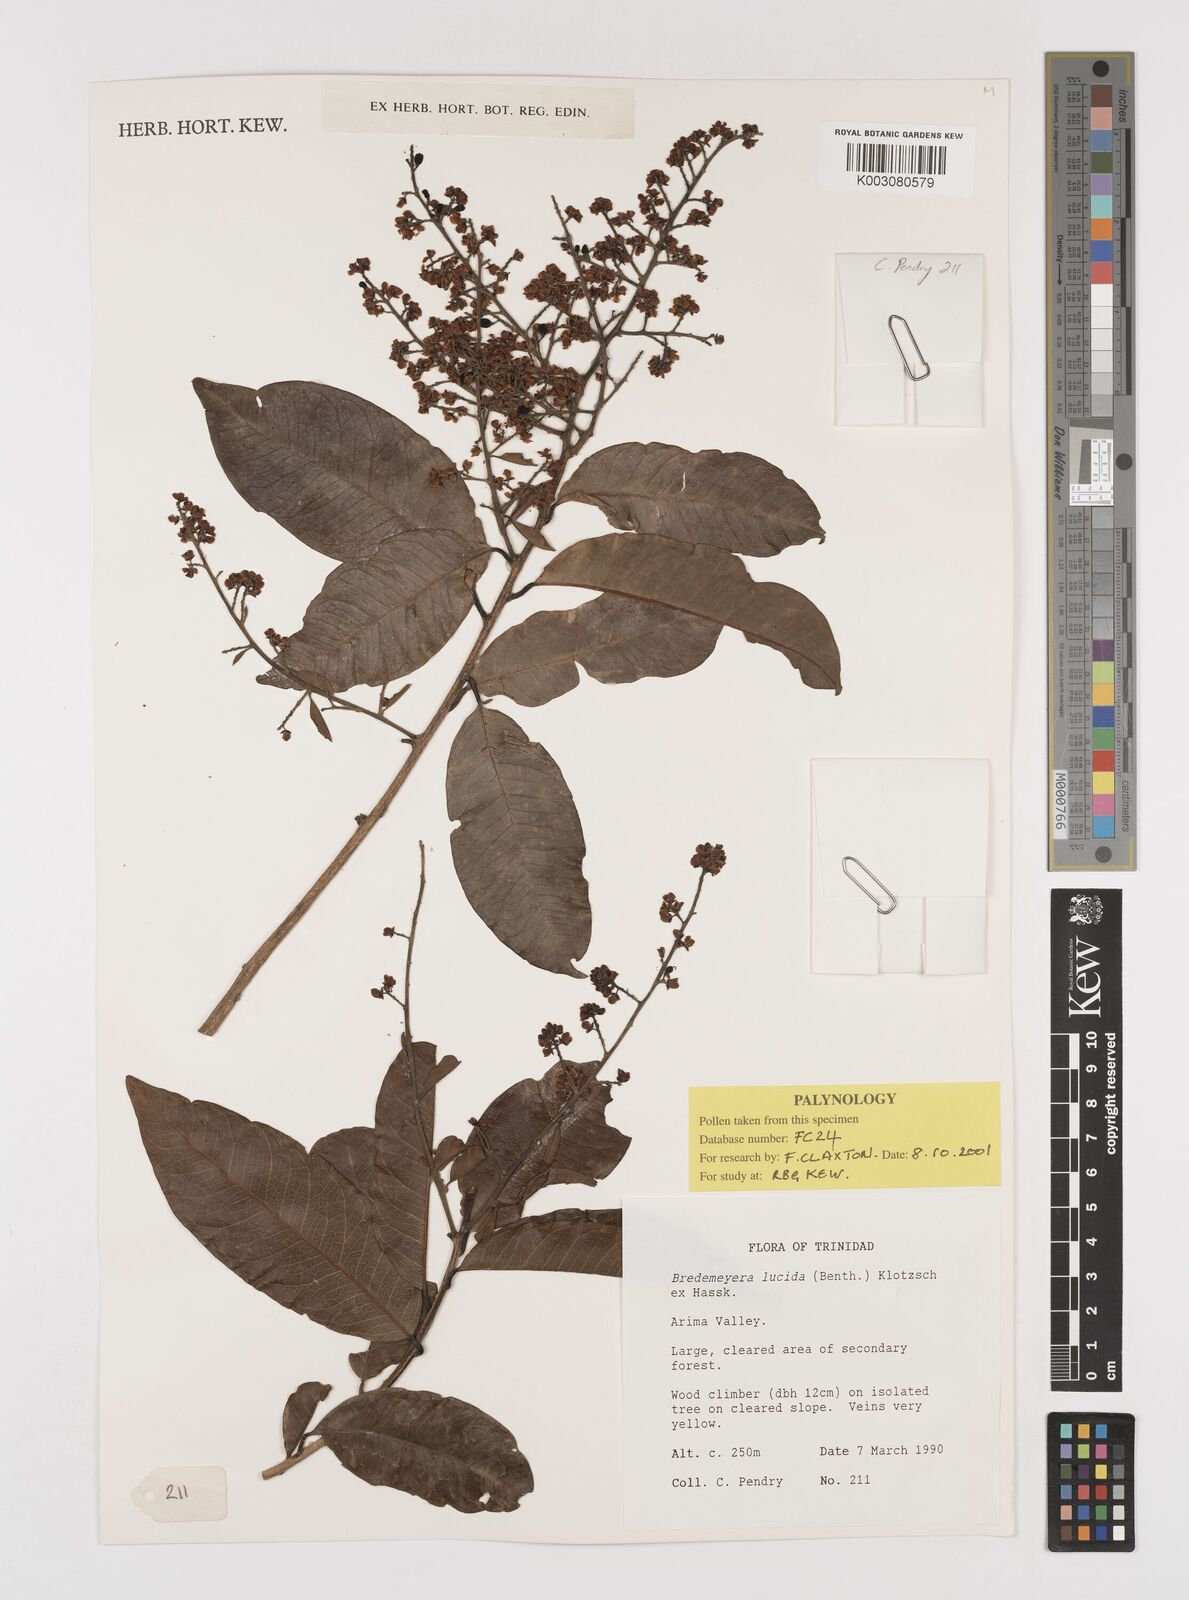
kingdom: Plantae
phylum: Tracheophyta
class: Magnoliopsida
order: Fabales
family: Polygalaceae
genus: Bredemeyera
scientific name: Bredemeyera lucida
